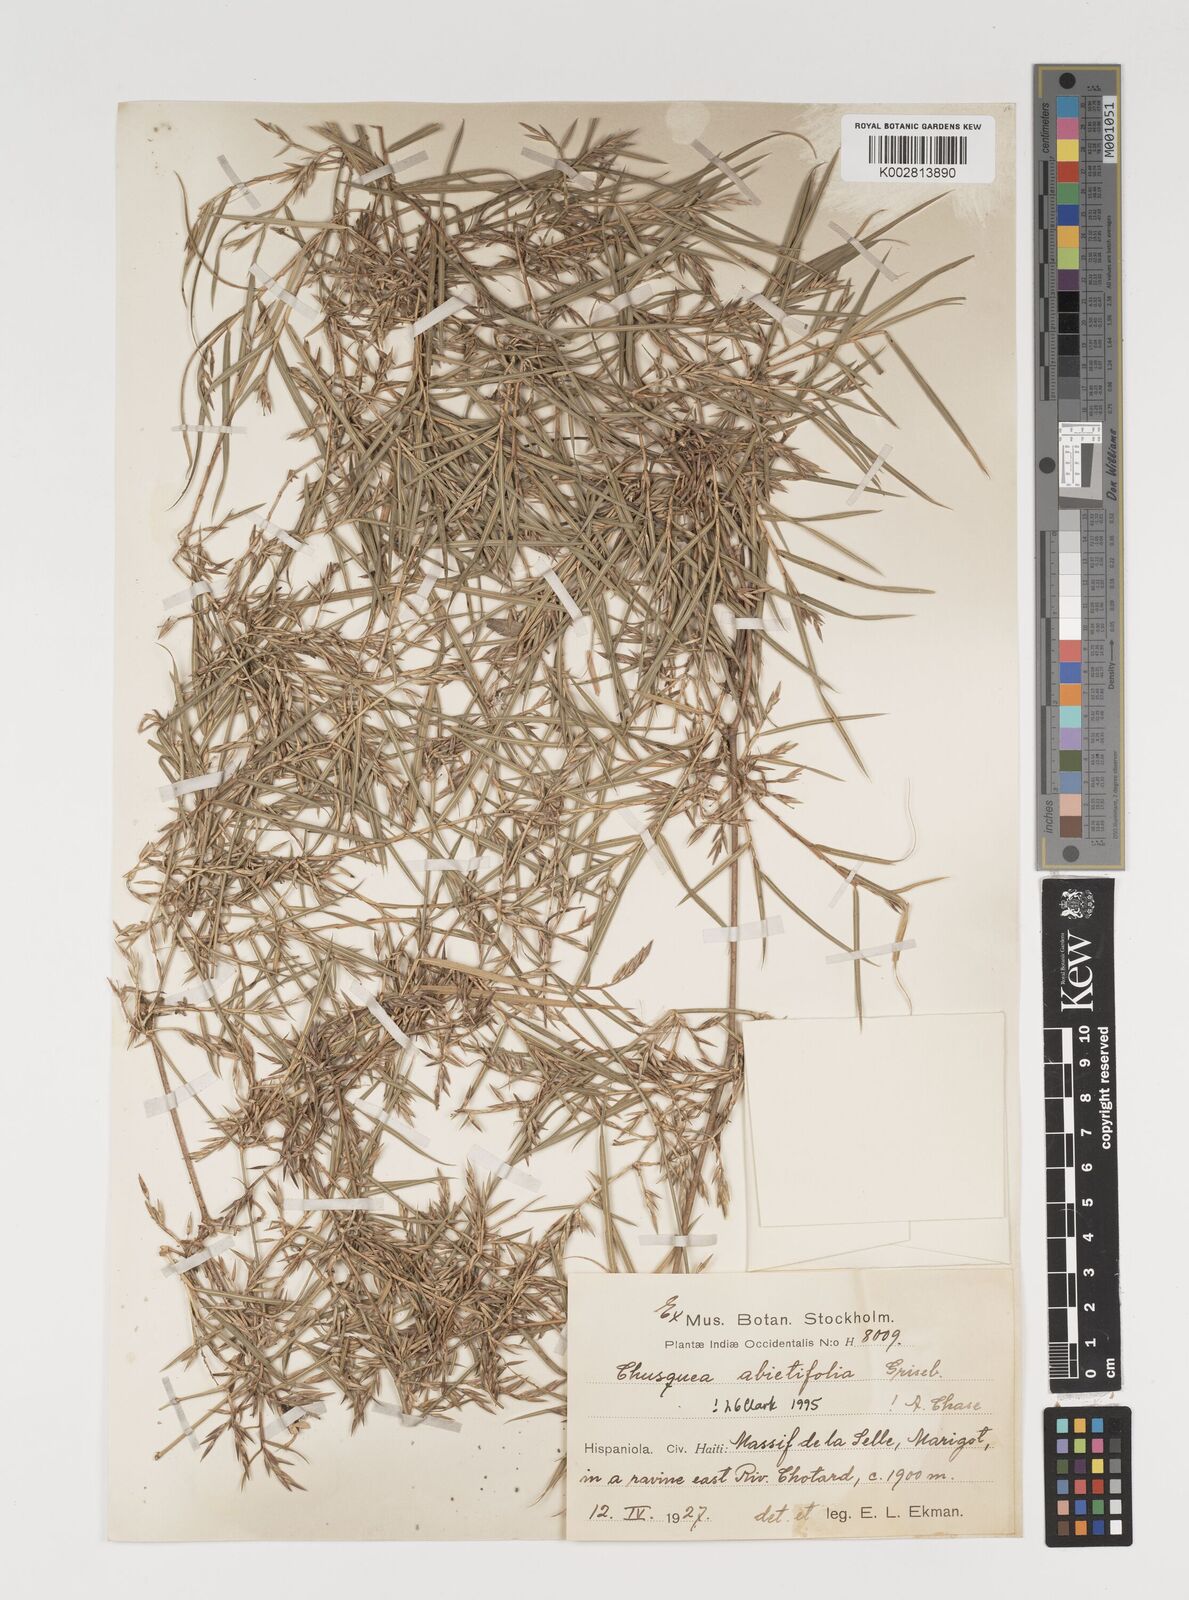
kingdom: Plantae
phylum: Tracheophyta
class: Liliopsida
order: Poales
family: Poaceae
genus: Chusquea
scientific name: Chusquea abietifolia
